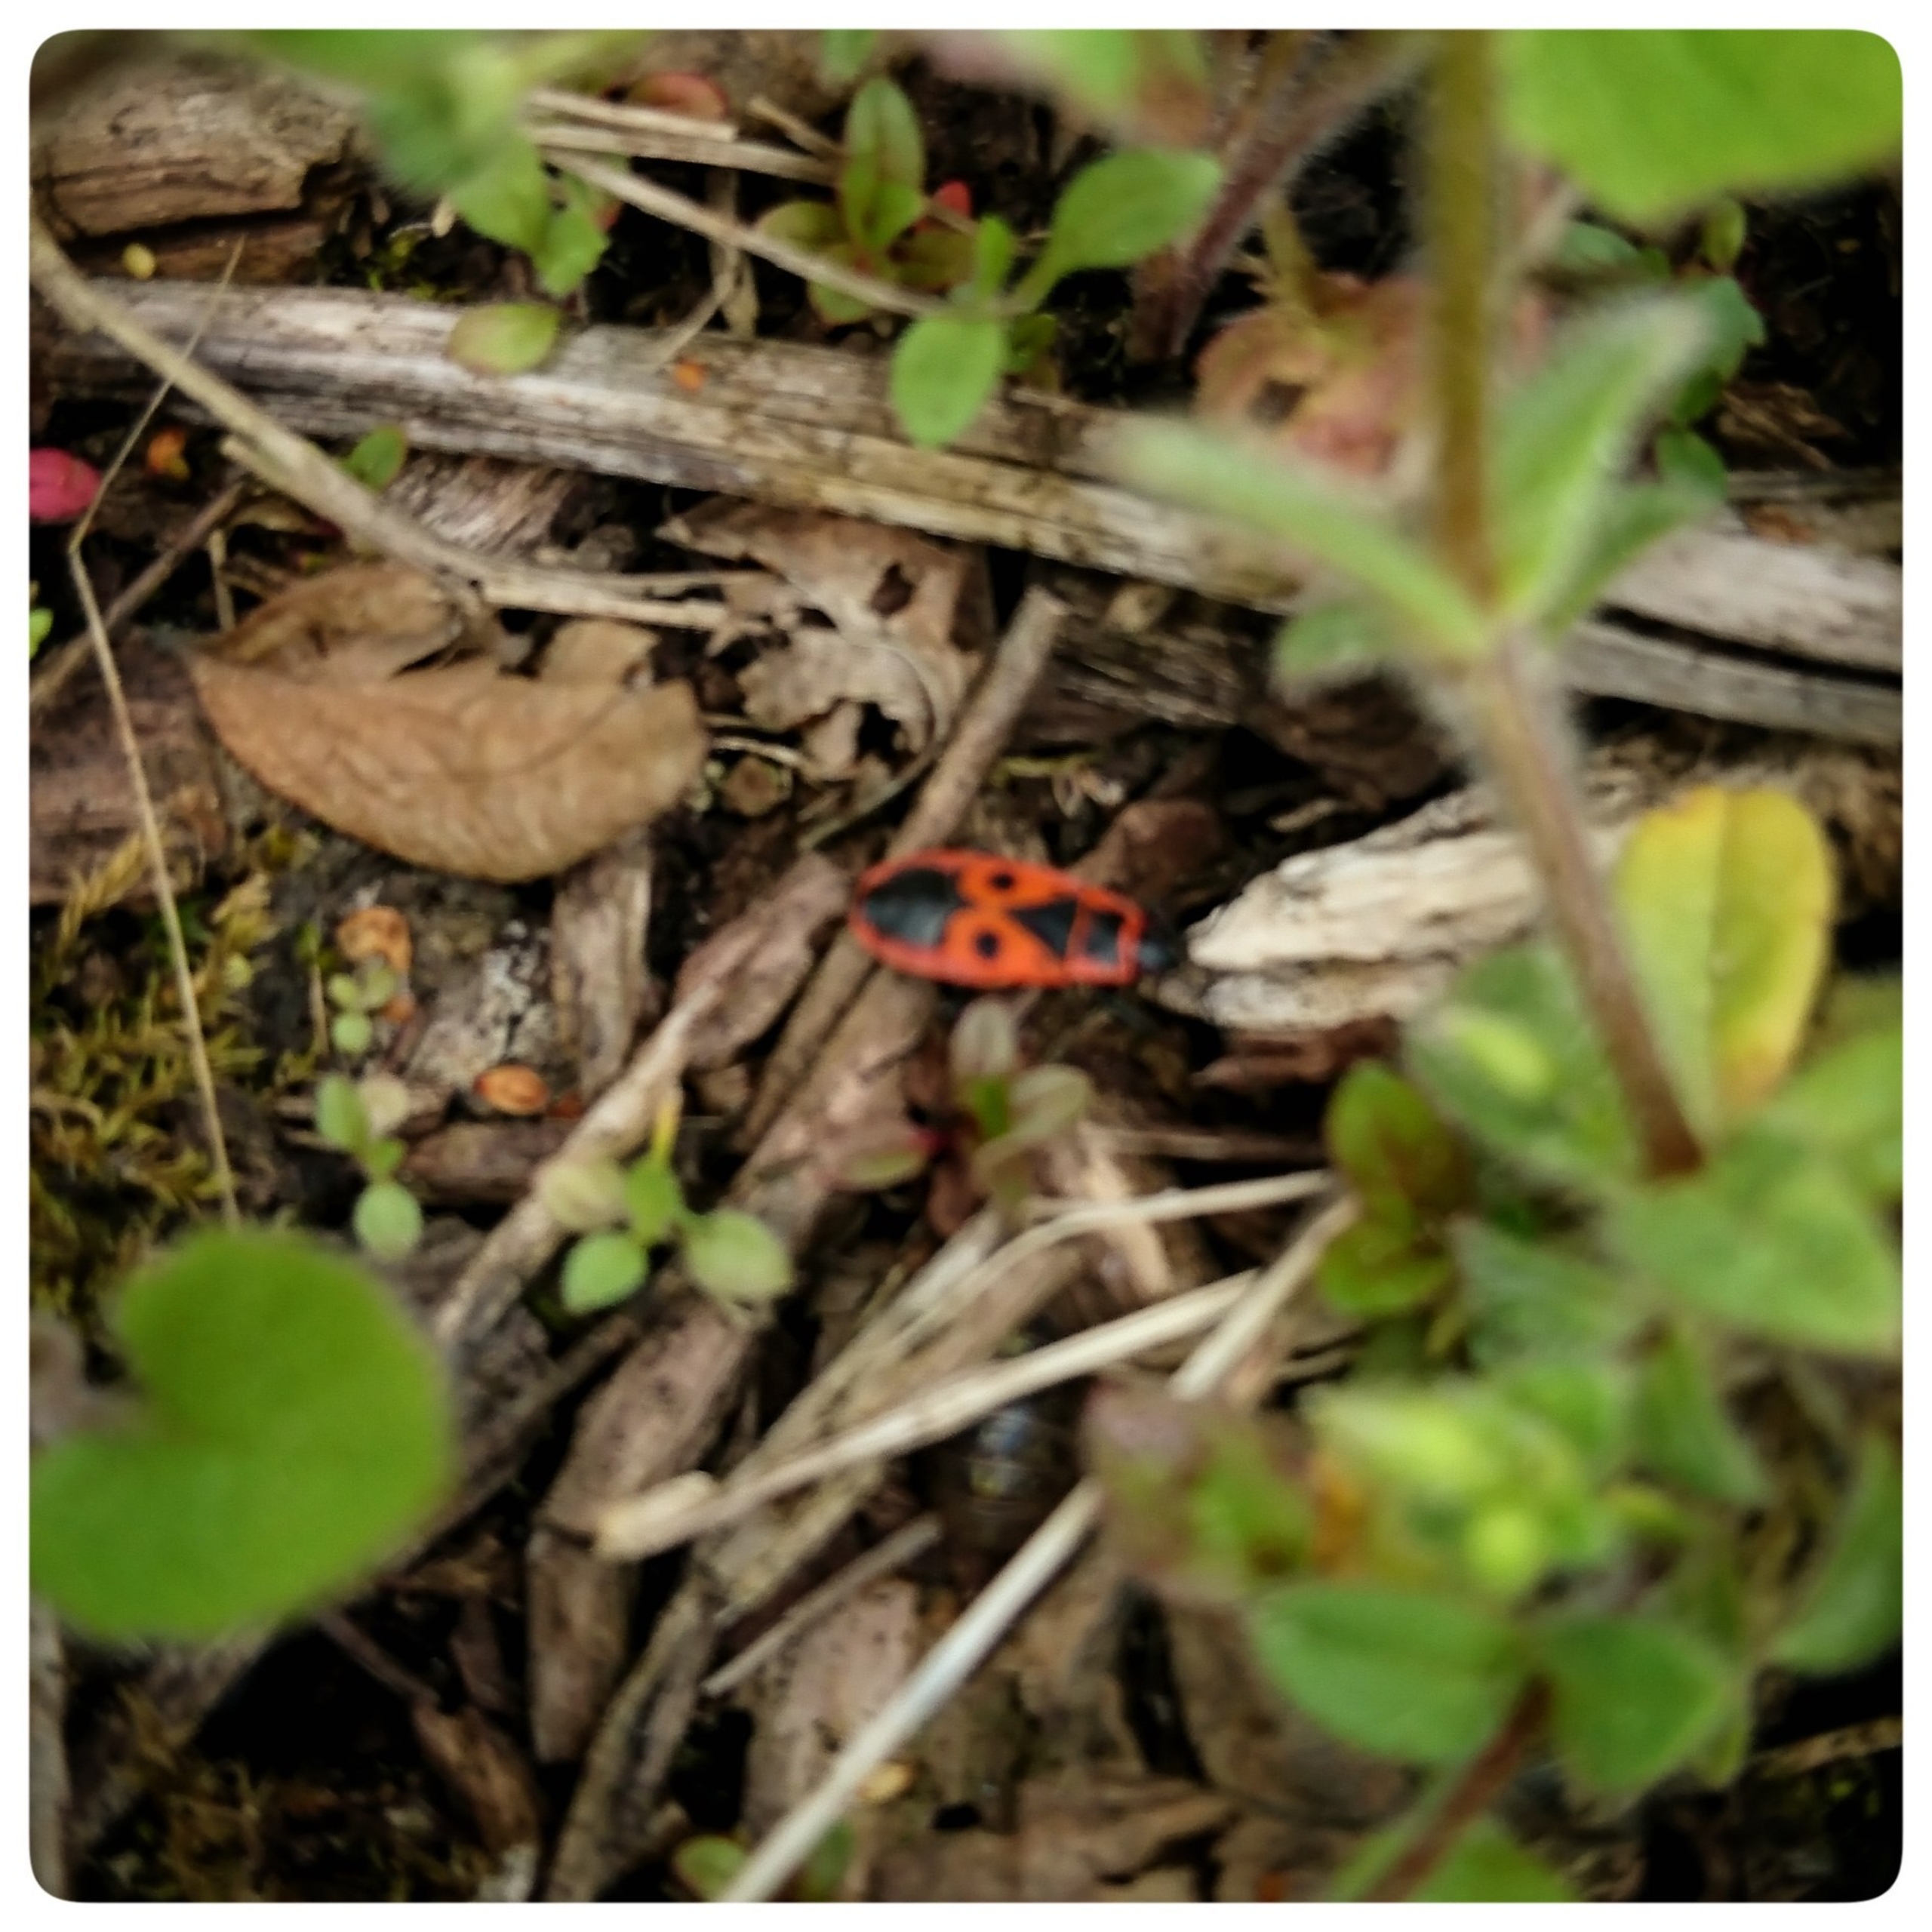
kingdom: Animalia
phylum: Arthropoda
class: Insecta
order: Hemiptera
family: Pyrrhocoridae
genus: Pyrrhocoris
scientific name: Pyrrhocoris apterus
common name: Ildtæge
